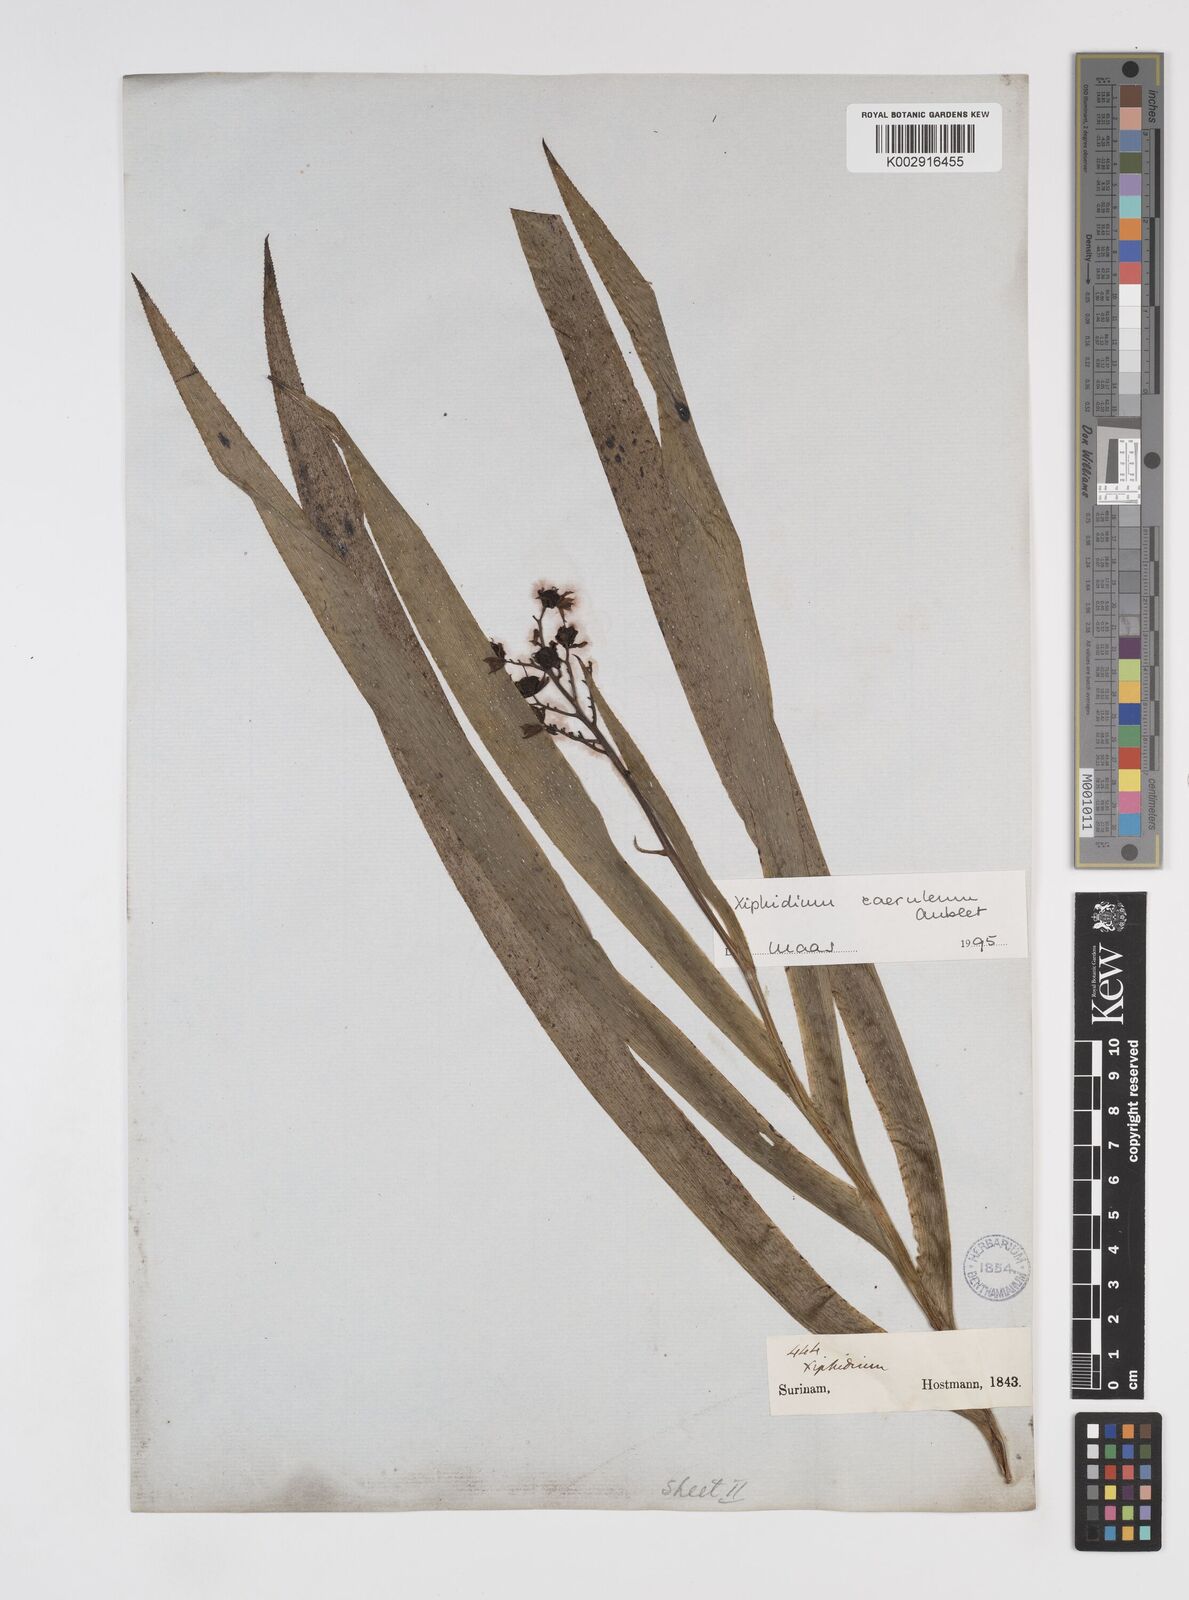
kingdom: Plantae
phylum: Tracheophyta
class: Liliopsida
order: Commelinales
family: Haemodoraceae
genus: Xiphidium
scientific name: Xiphidium caeruleum
